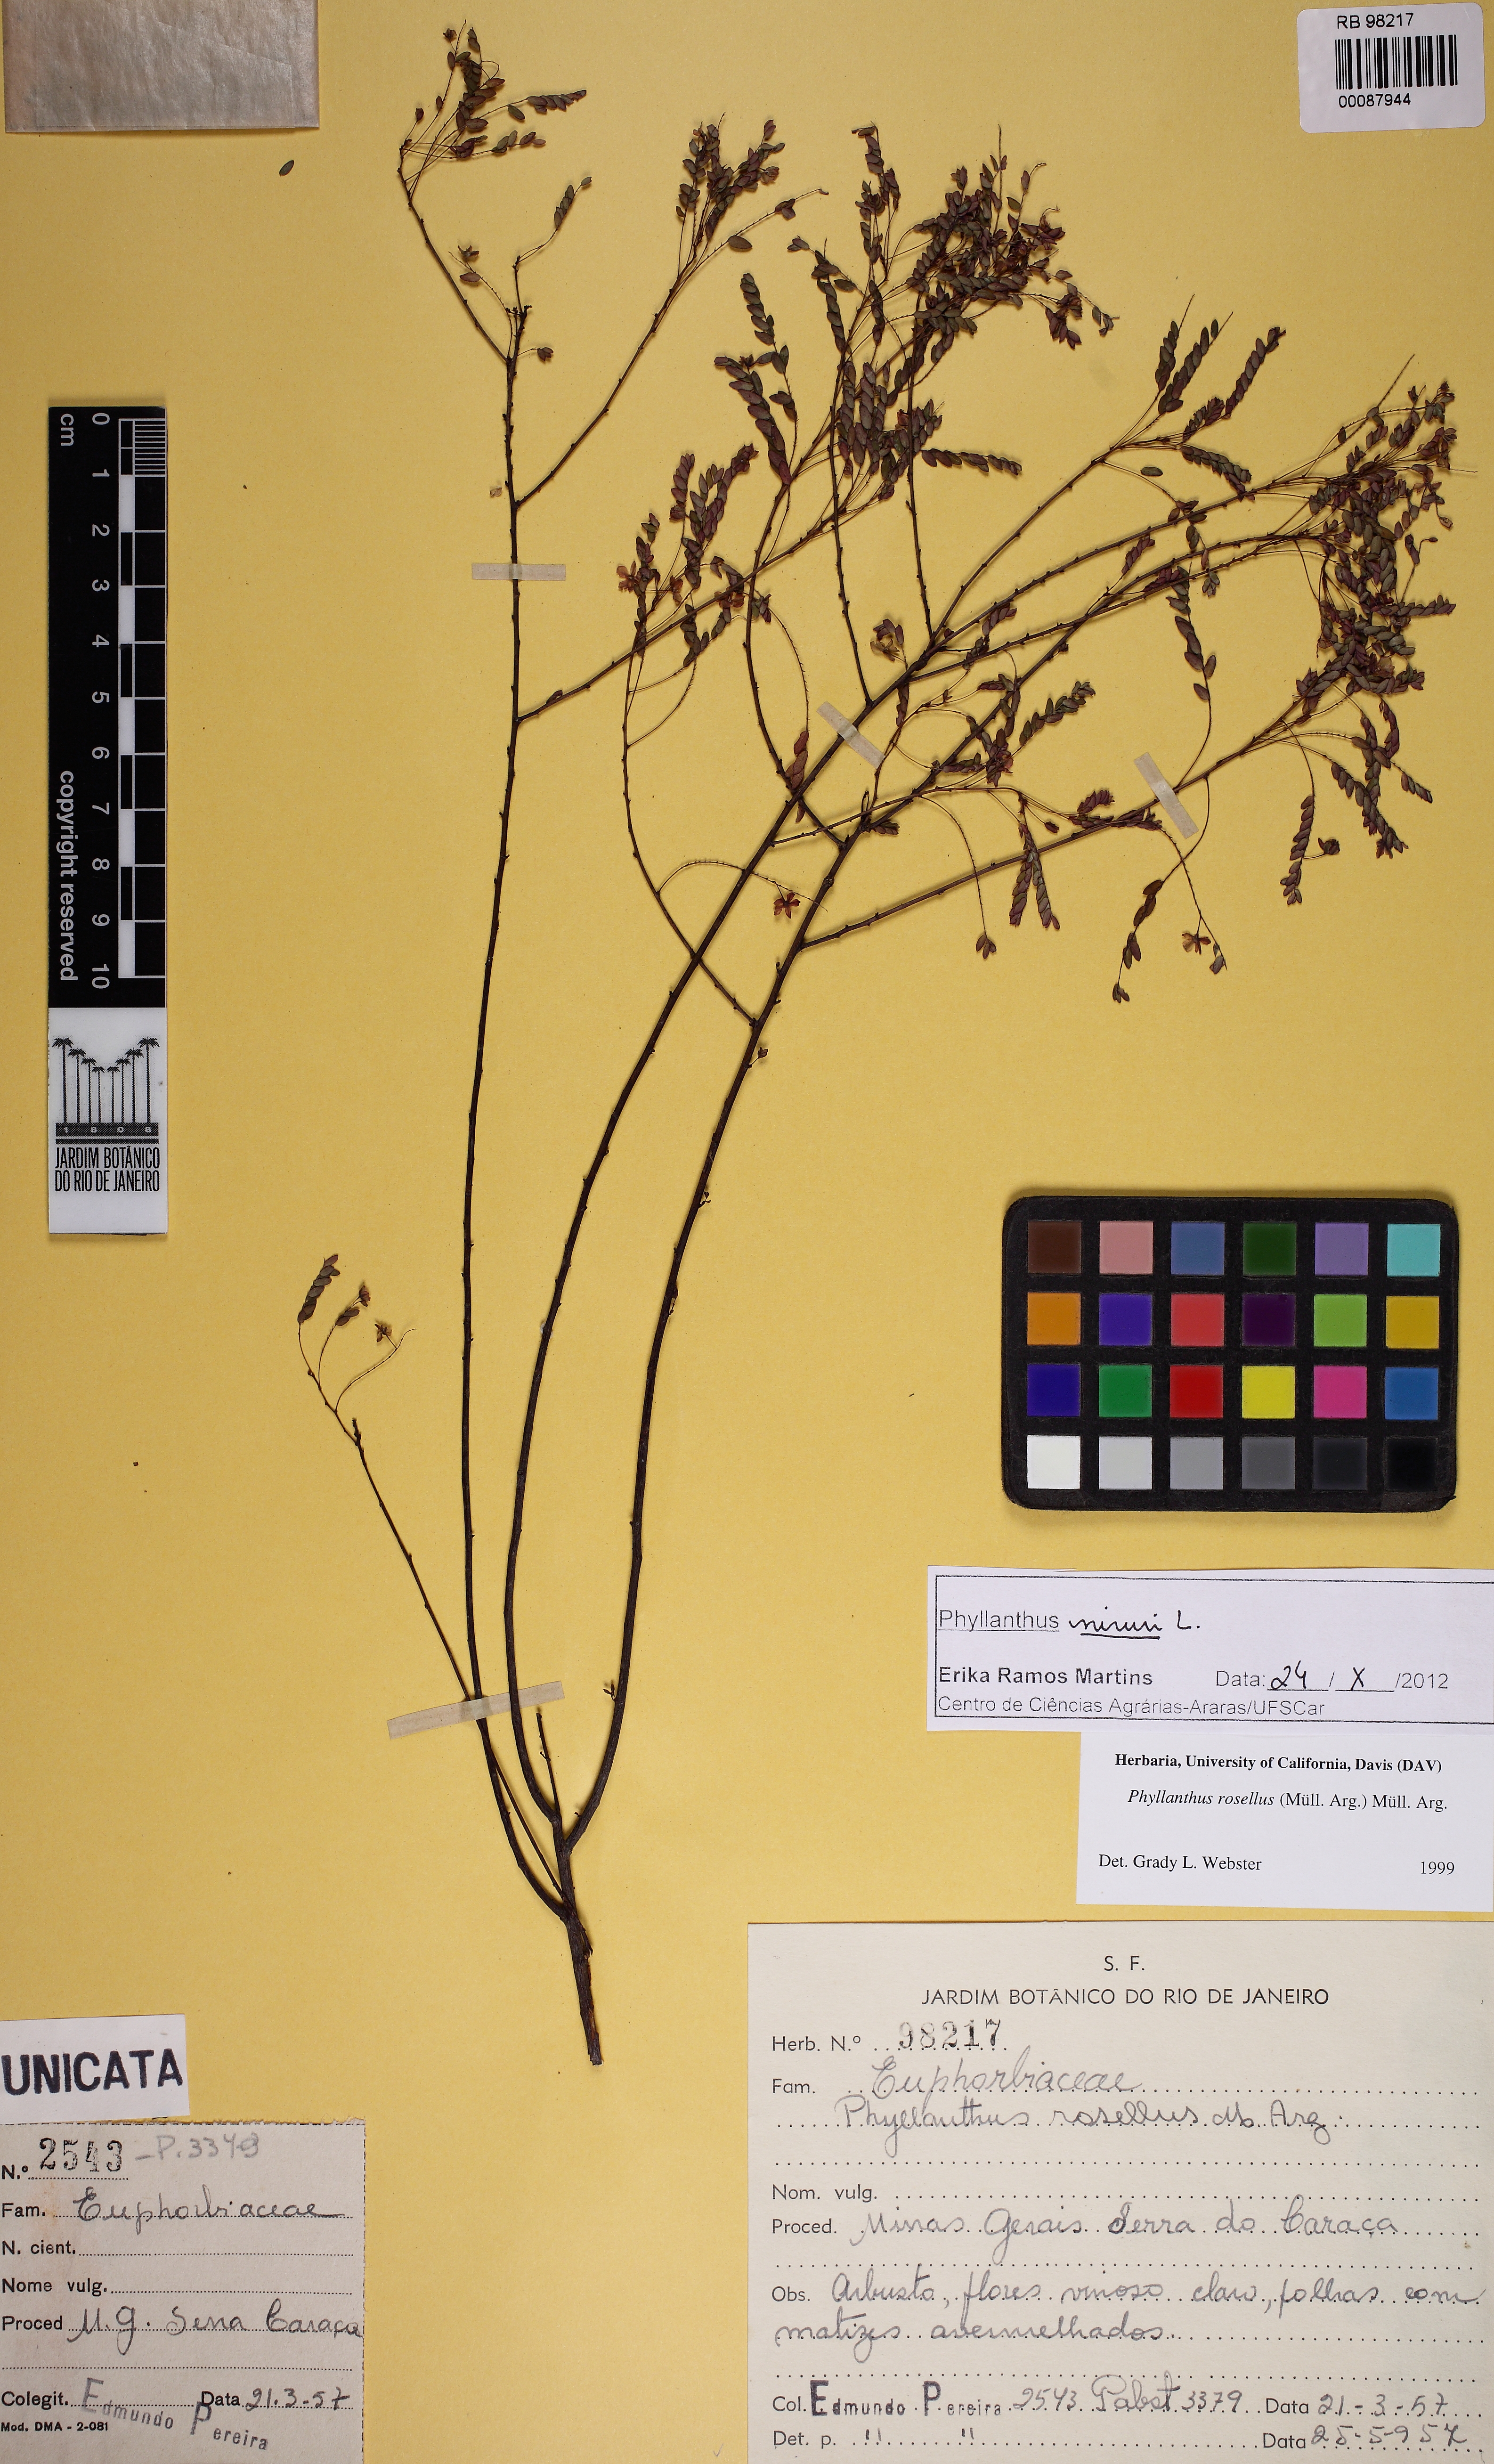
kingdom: Plantae
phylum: Tracheophyta
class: Magnoliopsida
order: Malpighiales
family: Phyllanthaceae
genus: Phyllanthus
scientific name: Phyllanthus niruri
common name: Niruri
